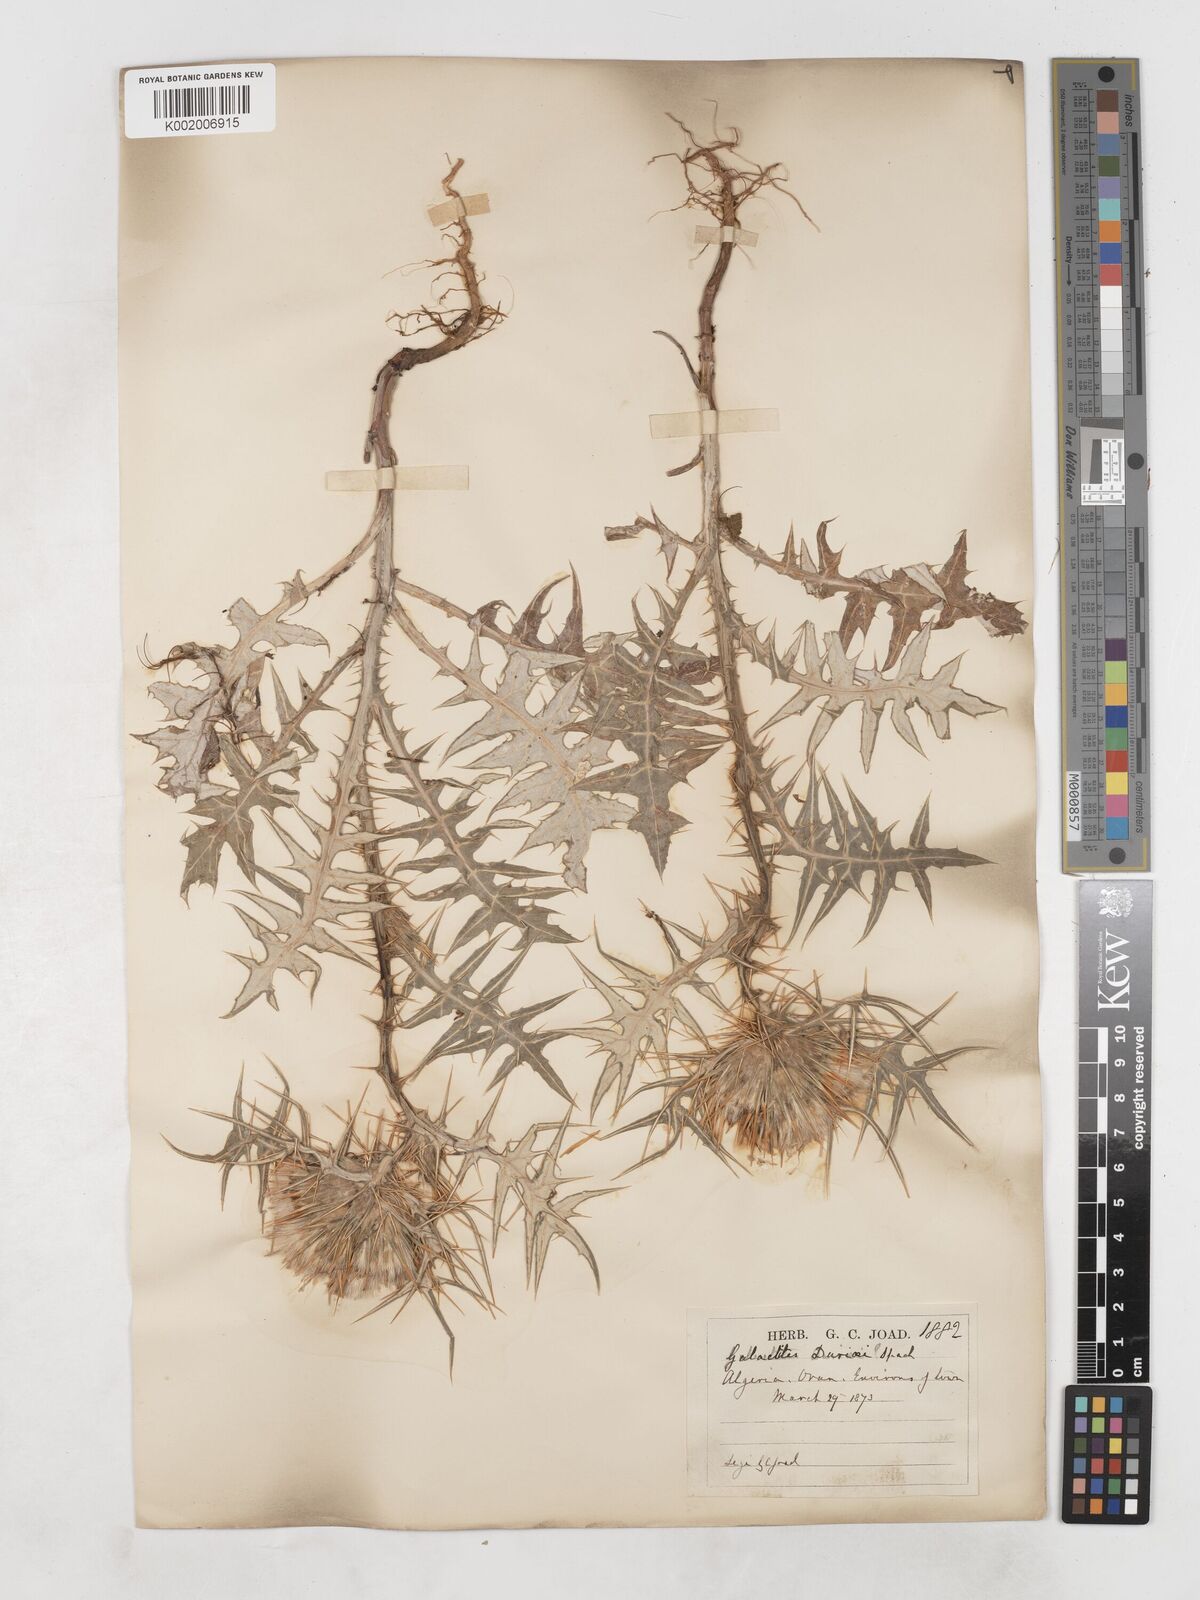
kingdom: Plantae
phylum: Tracheophyta
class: Magnoliopsida
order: Asterales
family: Asteraceae
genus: Galactites
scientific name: Galactites duriaei
